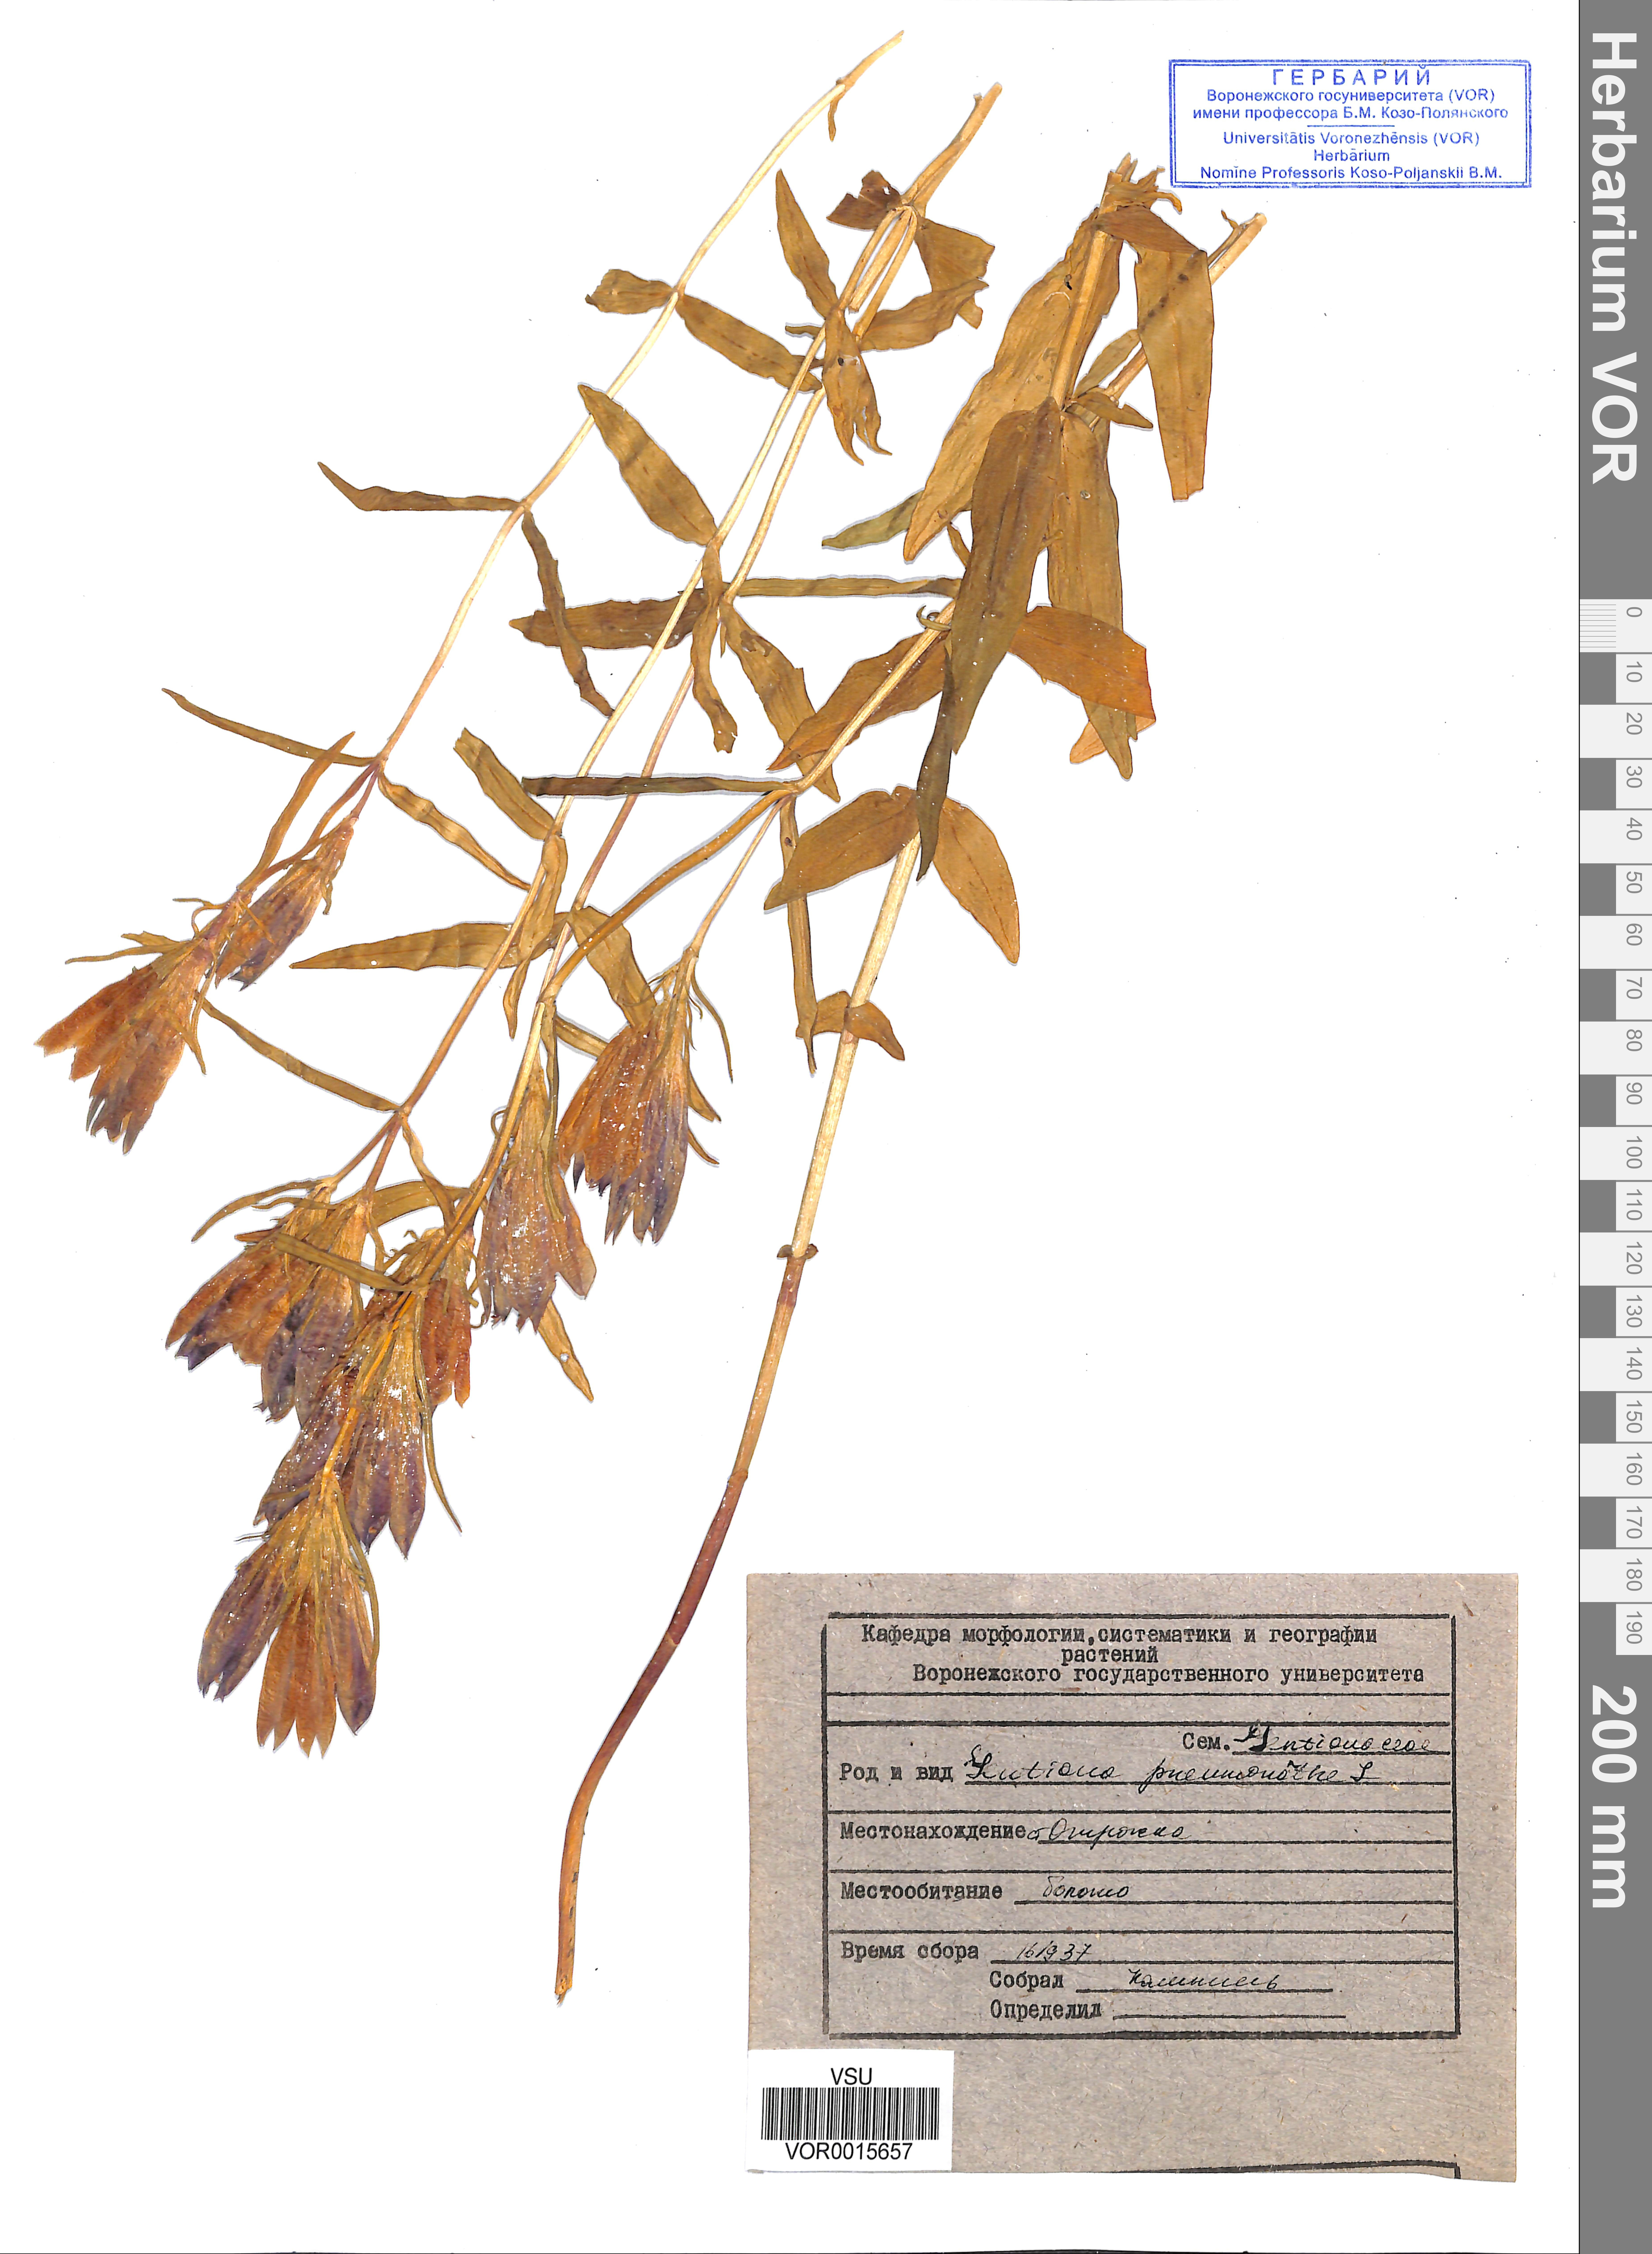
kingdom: Plantae
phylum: Tracheophyta
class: Magnoliopsida
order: Gentianales
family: Gentianaceae
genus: Gentiana
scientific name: Gentiana pneumonanthe
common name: Marsh gentian
